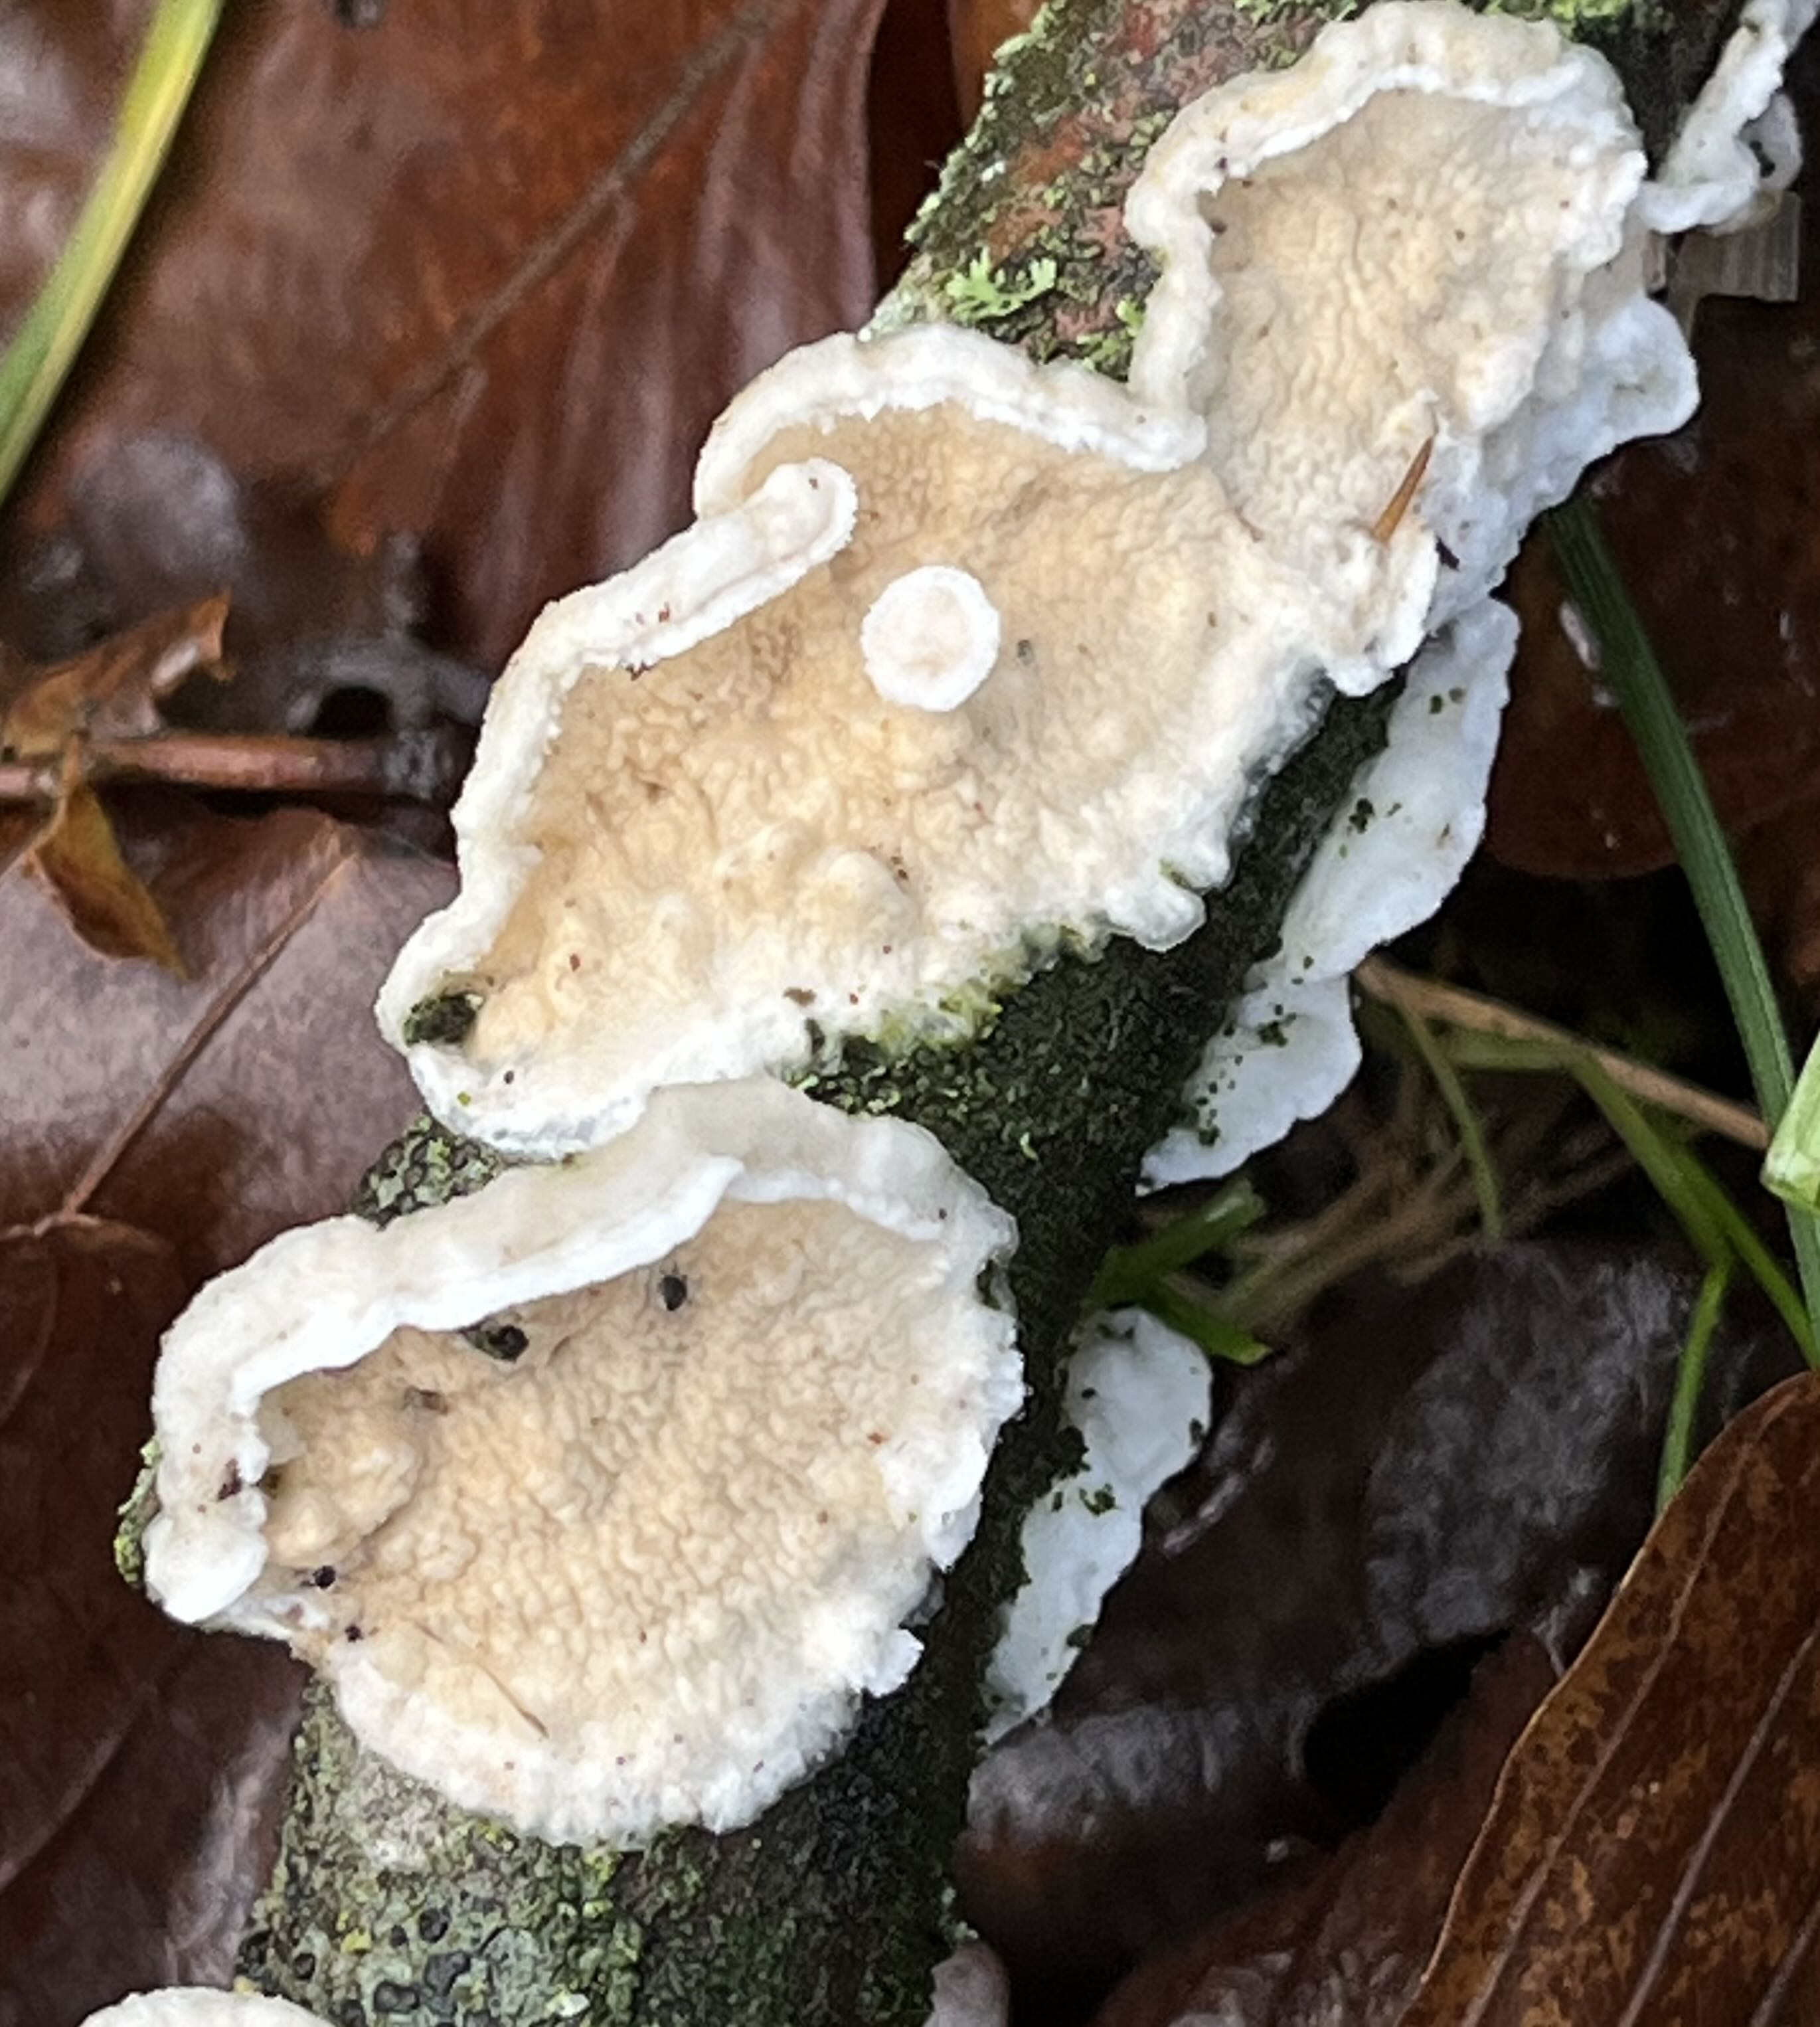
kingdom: Fungi
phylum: Basidiomycota
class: Agaricomycetes
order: Polyporales
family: Irpicaceae
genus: Byssomerulius
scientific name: Byssomerulius corium
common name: læder-åresvamp
